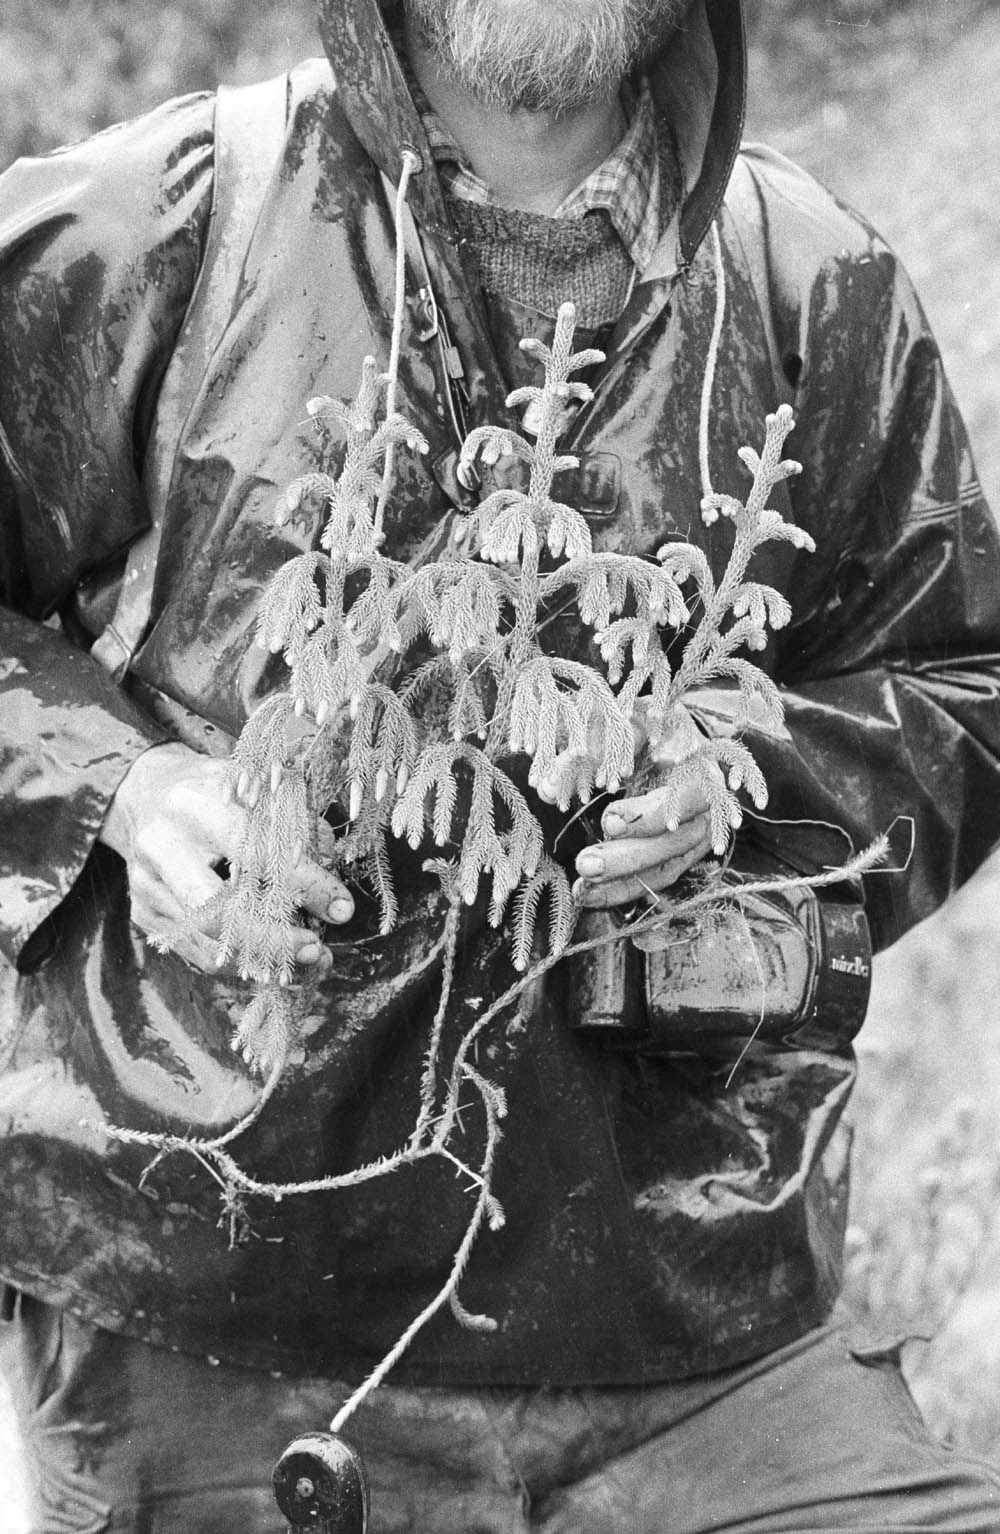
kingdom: Plantae
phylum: Tracheophyta
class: Lycopodiopsida
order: Lycopodiales
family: Lycopodiaceae
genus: Palhinhaea
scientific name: Palhinhaea pendulina
